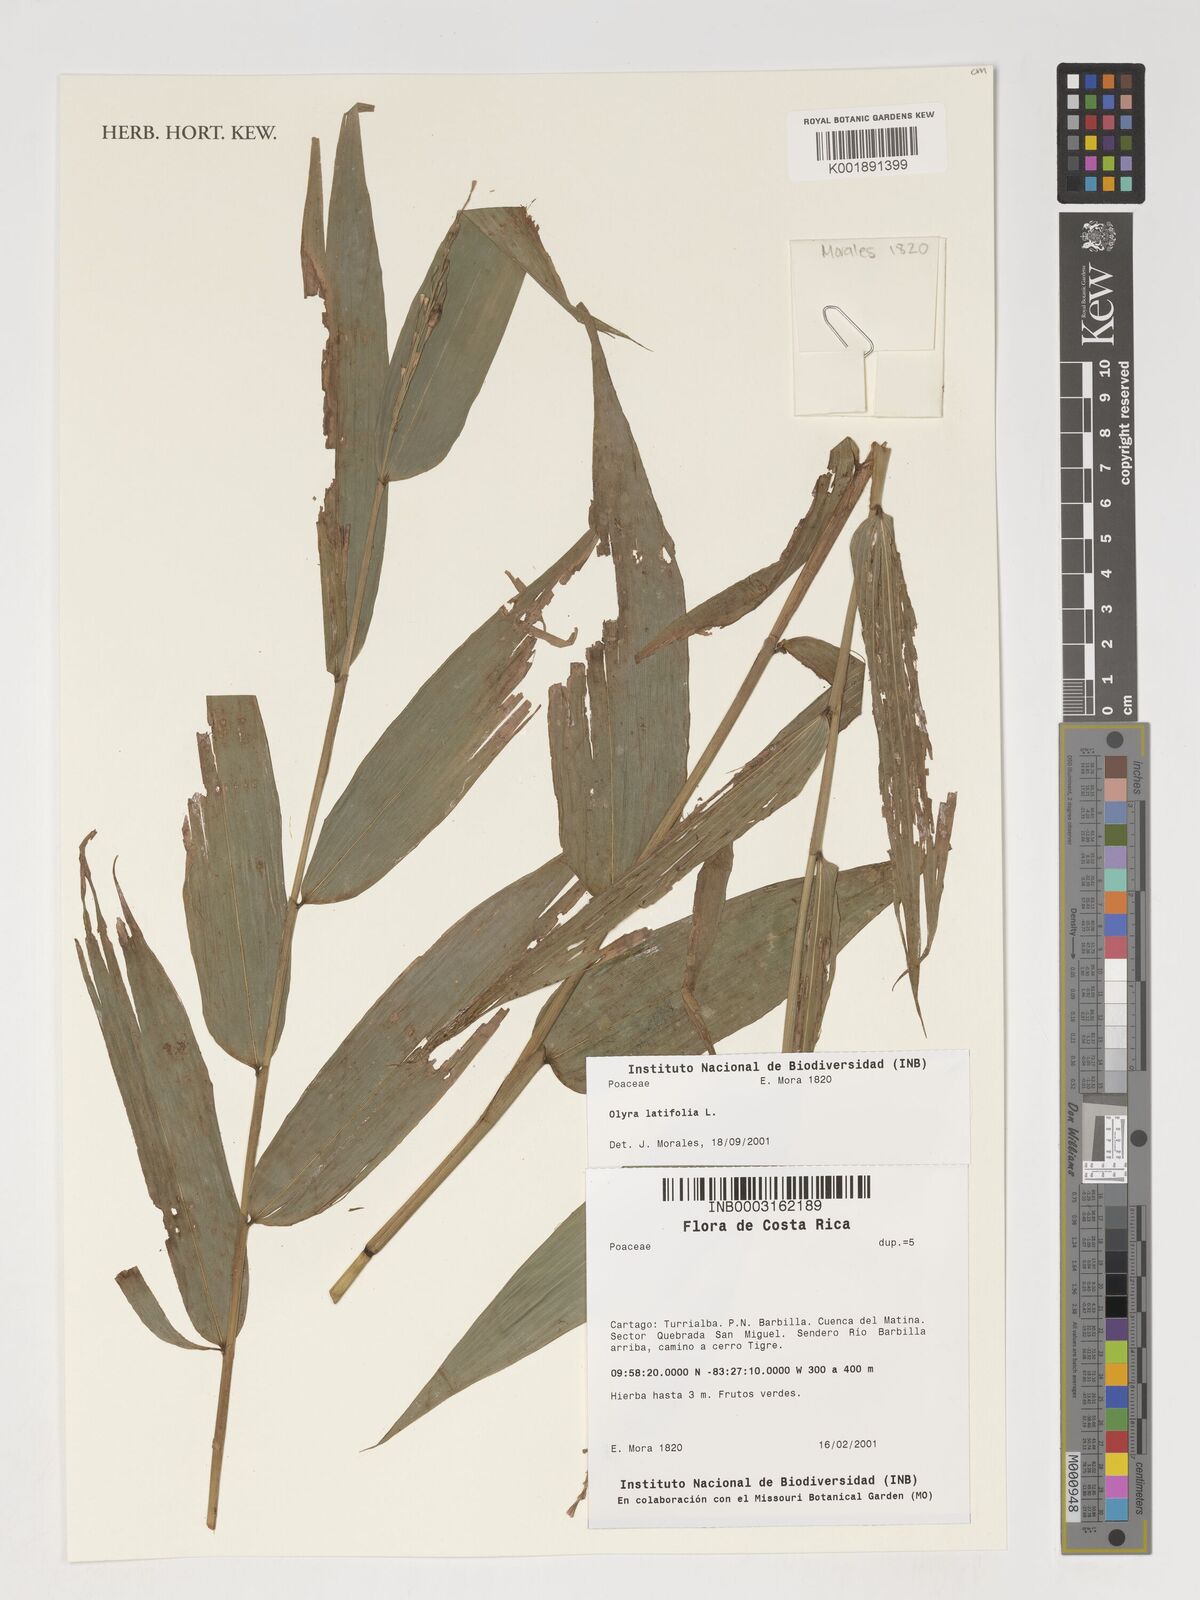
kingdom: Plantae
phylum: Tracheophyta
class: Liliopsida
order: Poales
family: Poaceae
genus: Olyra
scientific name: Olyra latifolia
